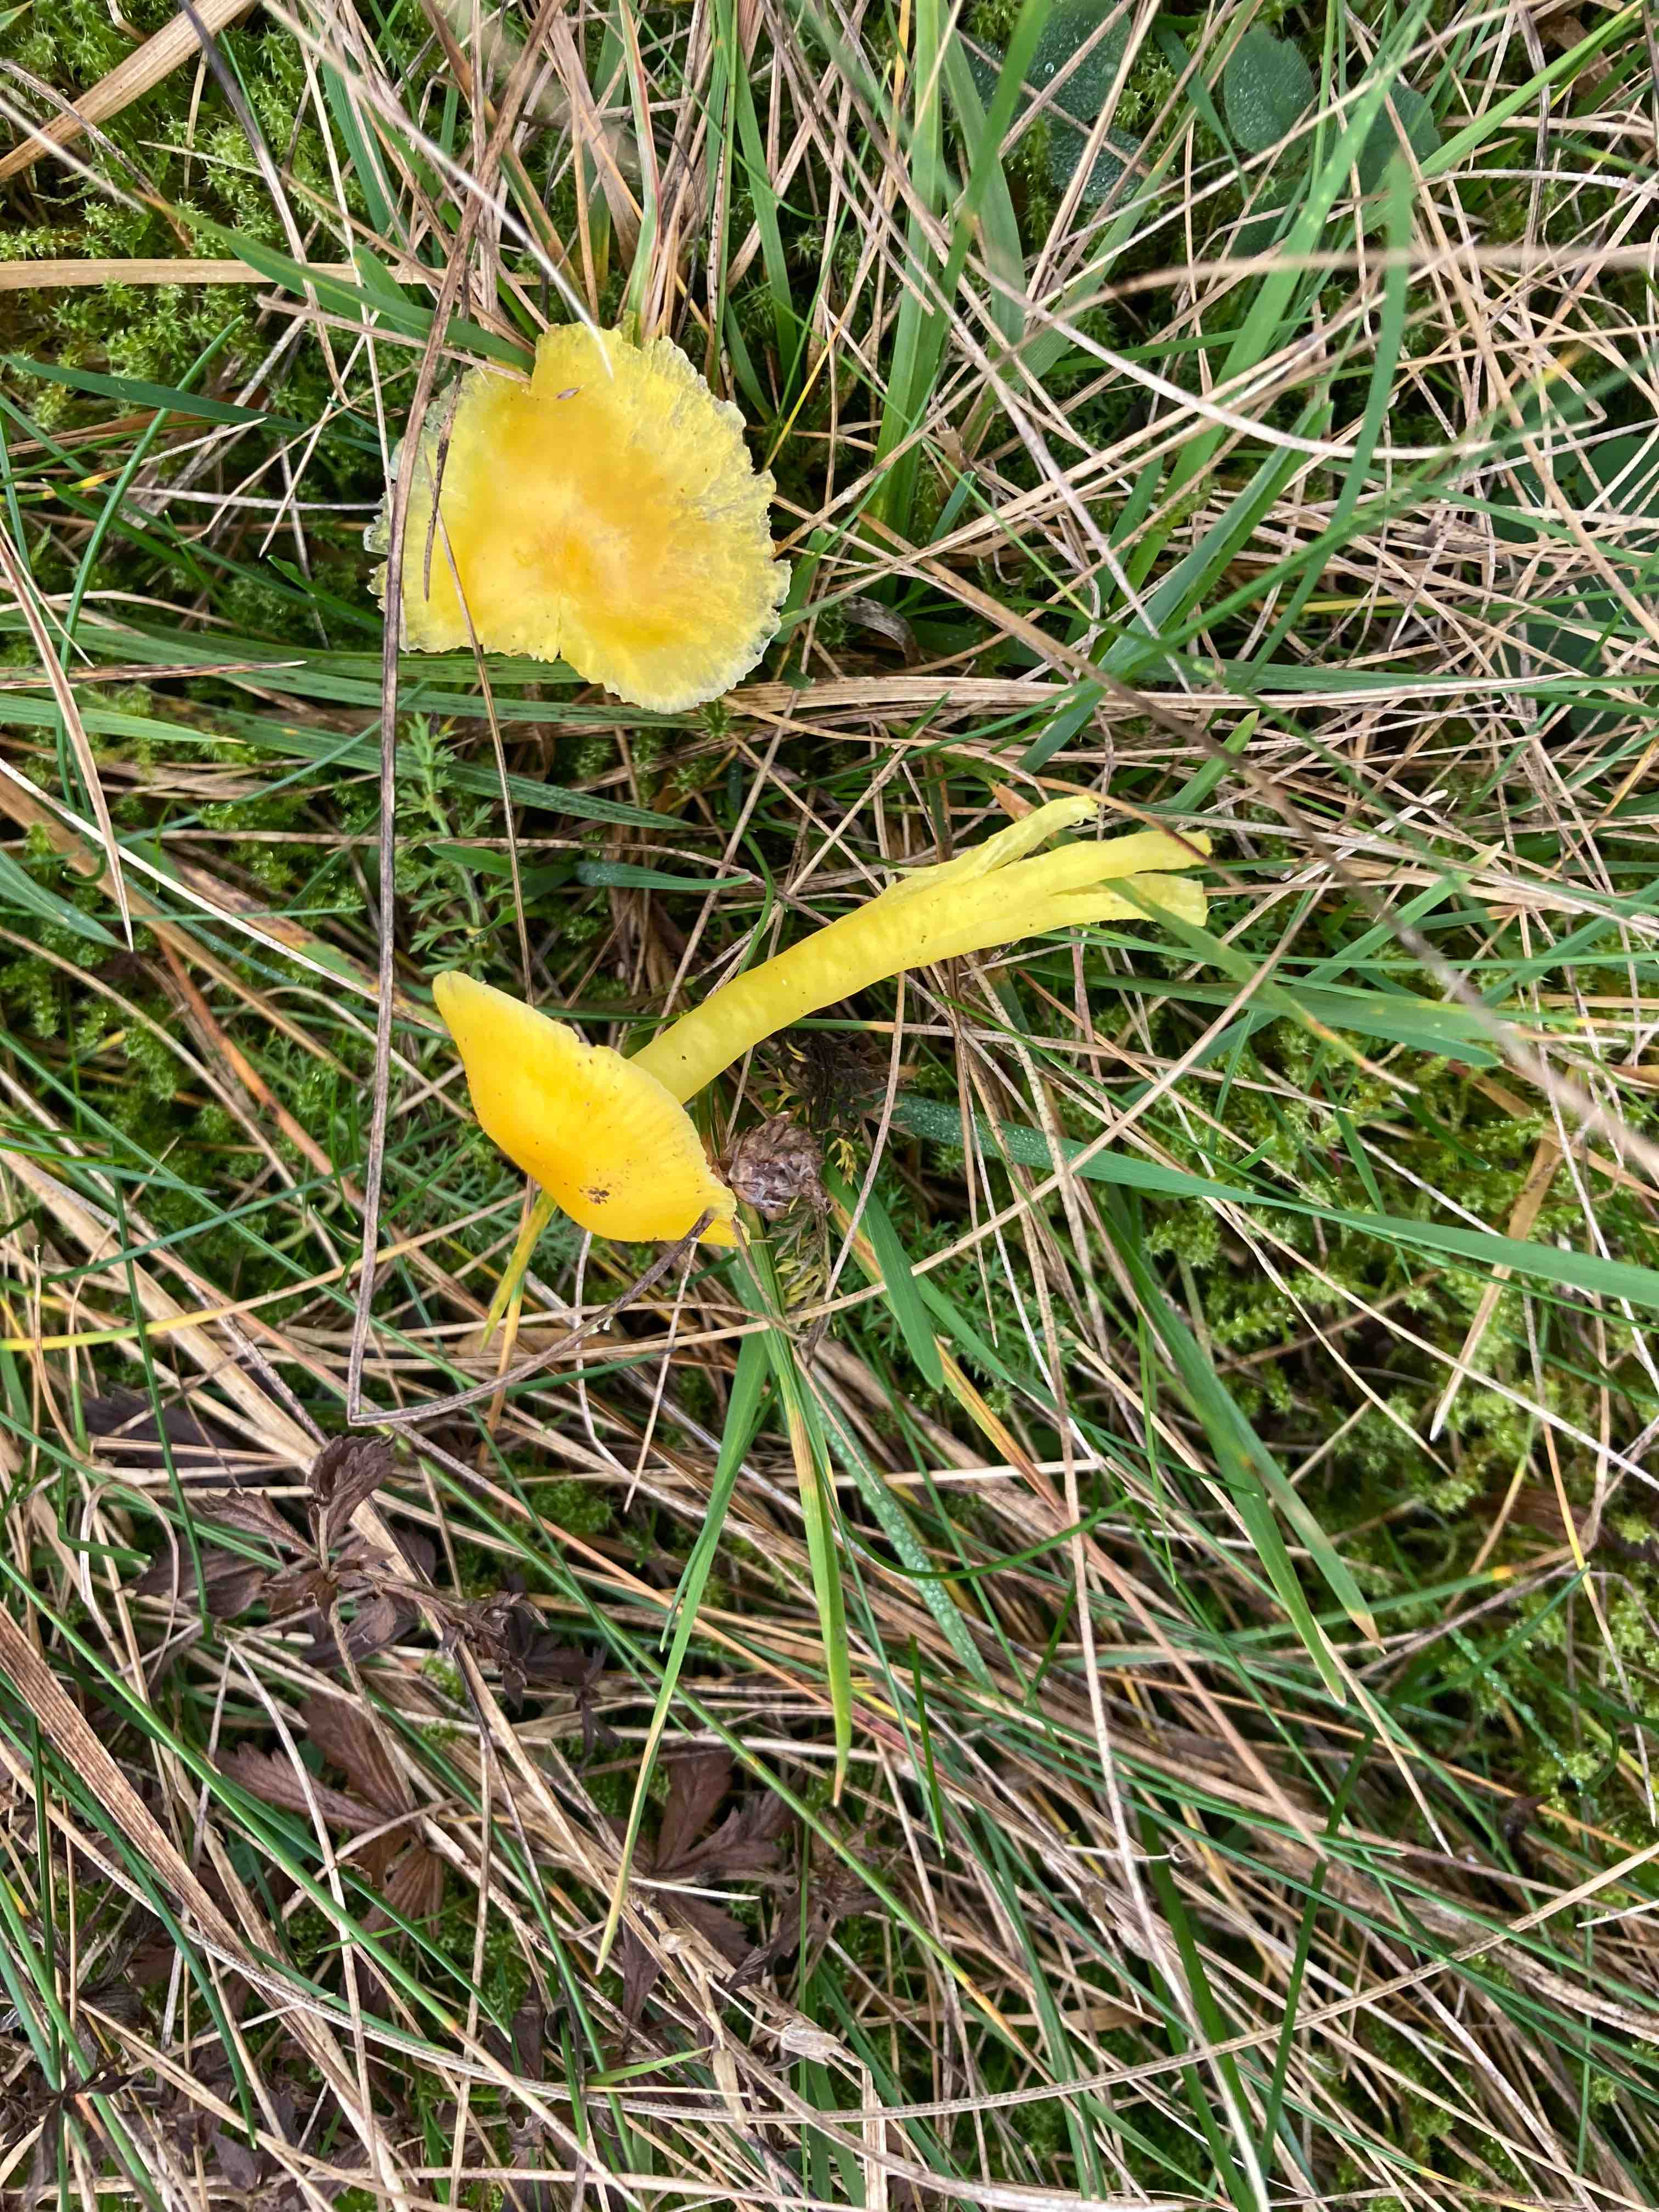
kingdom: Fungi
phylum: Basidiomycota
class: Agaricomycetes
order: Agaricales
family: Hygrophoraceae
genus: Hygrocybe
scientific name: Hygrocybe
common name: vokshat
